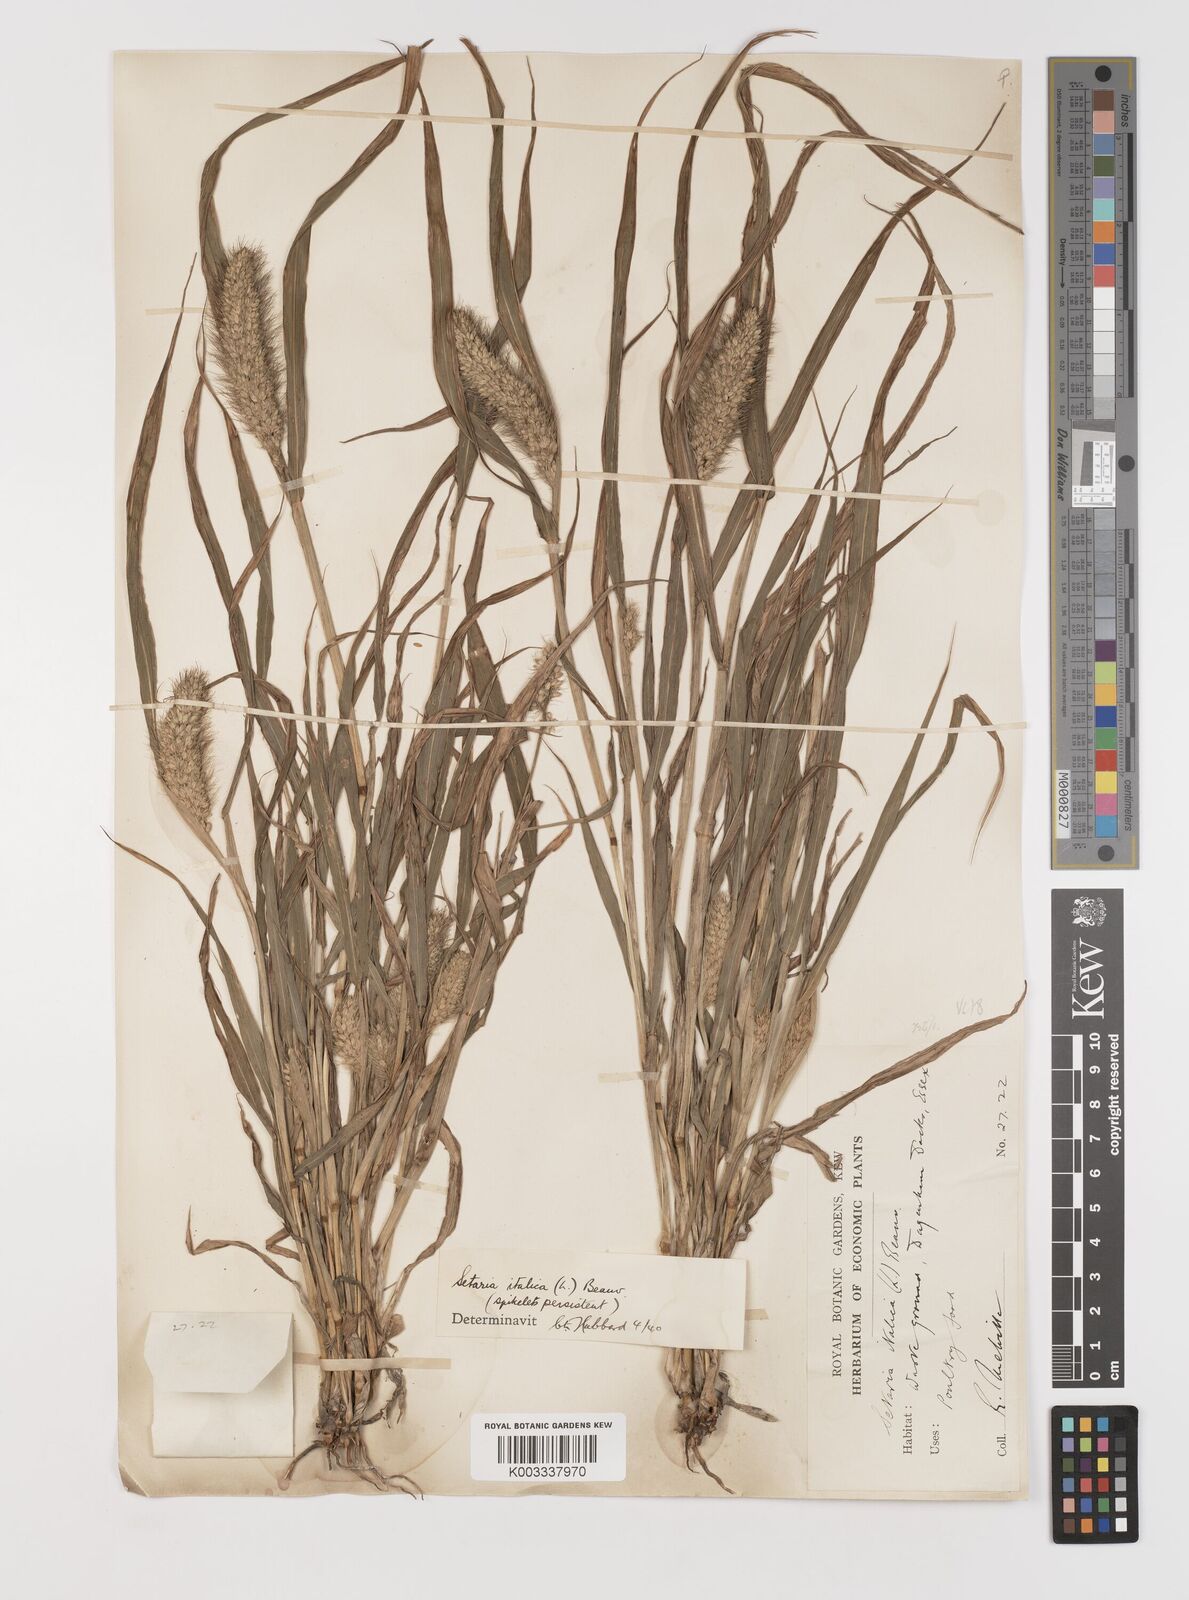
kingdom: Plantae
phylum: Tracheophyta
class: Liliopsida
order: Poales
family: Poaceae
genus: Setaria
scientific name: Setaria italica
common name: Foxtail bristle-grass
